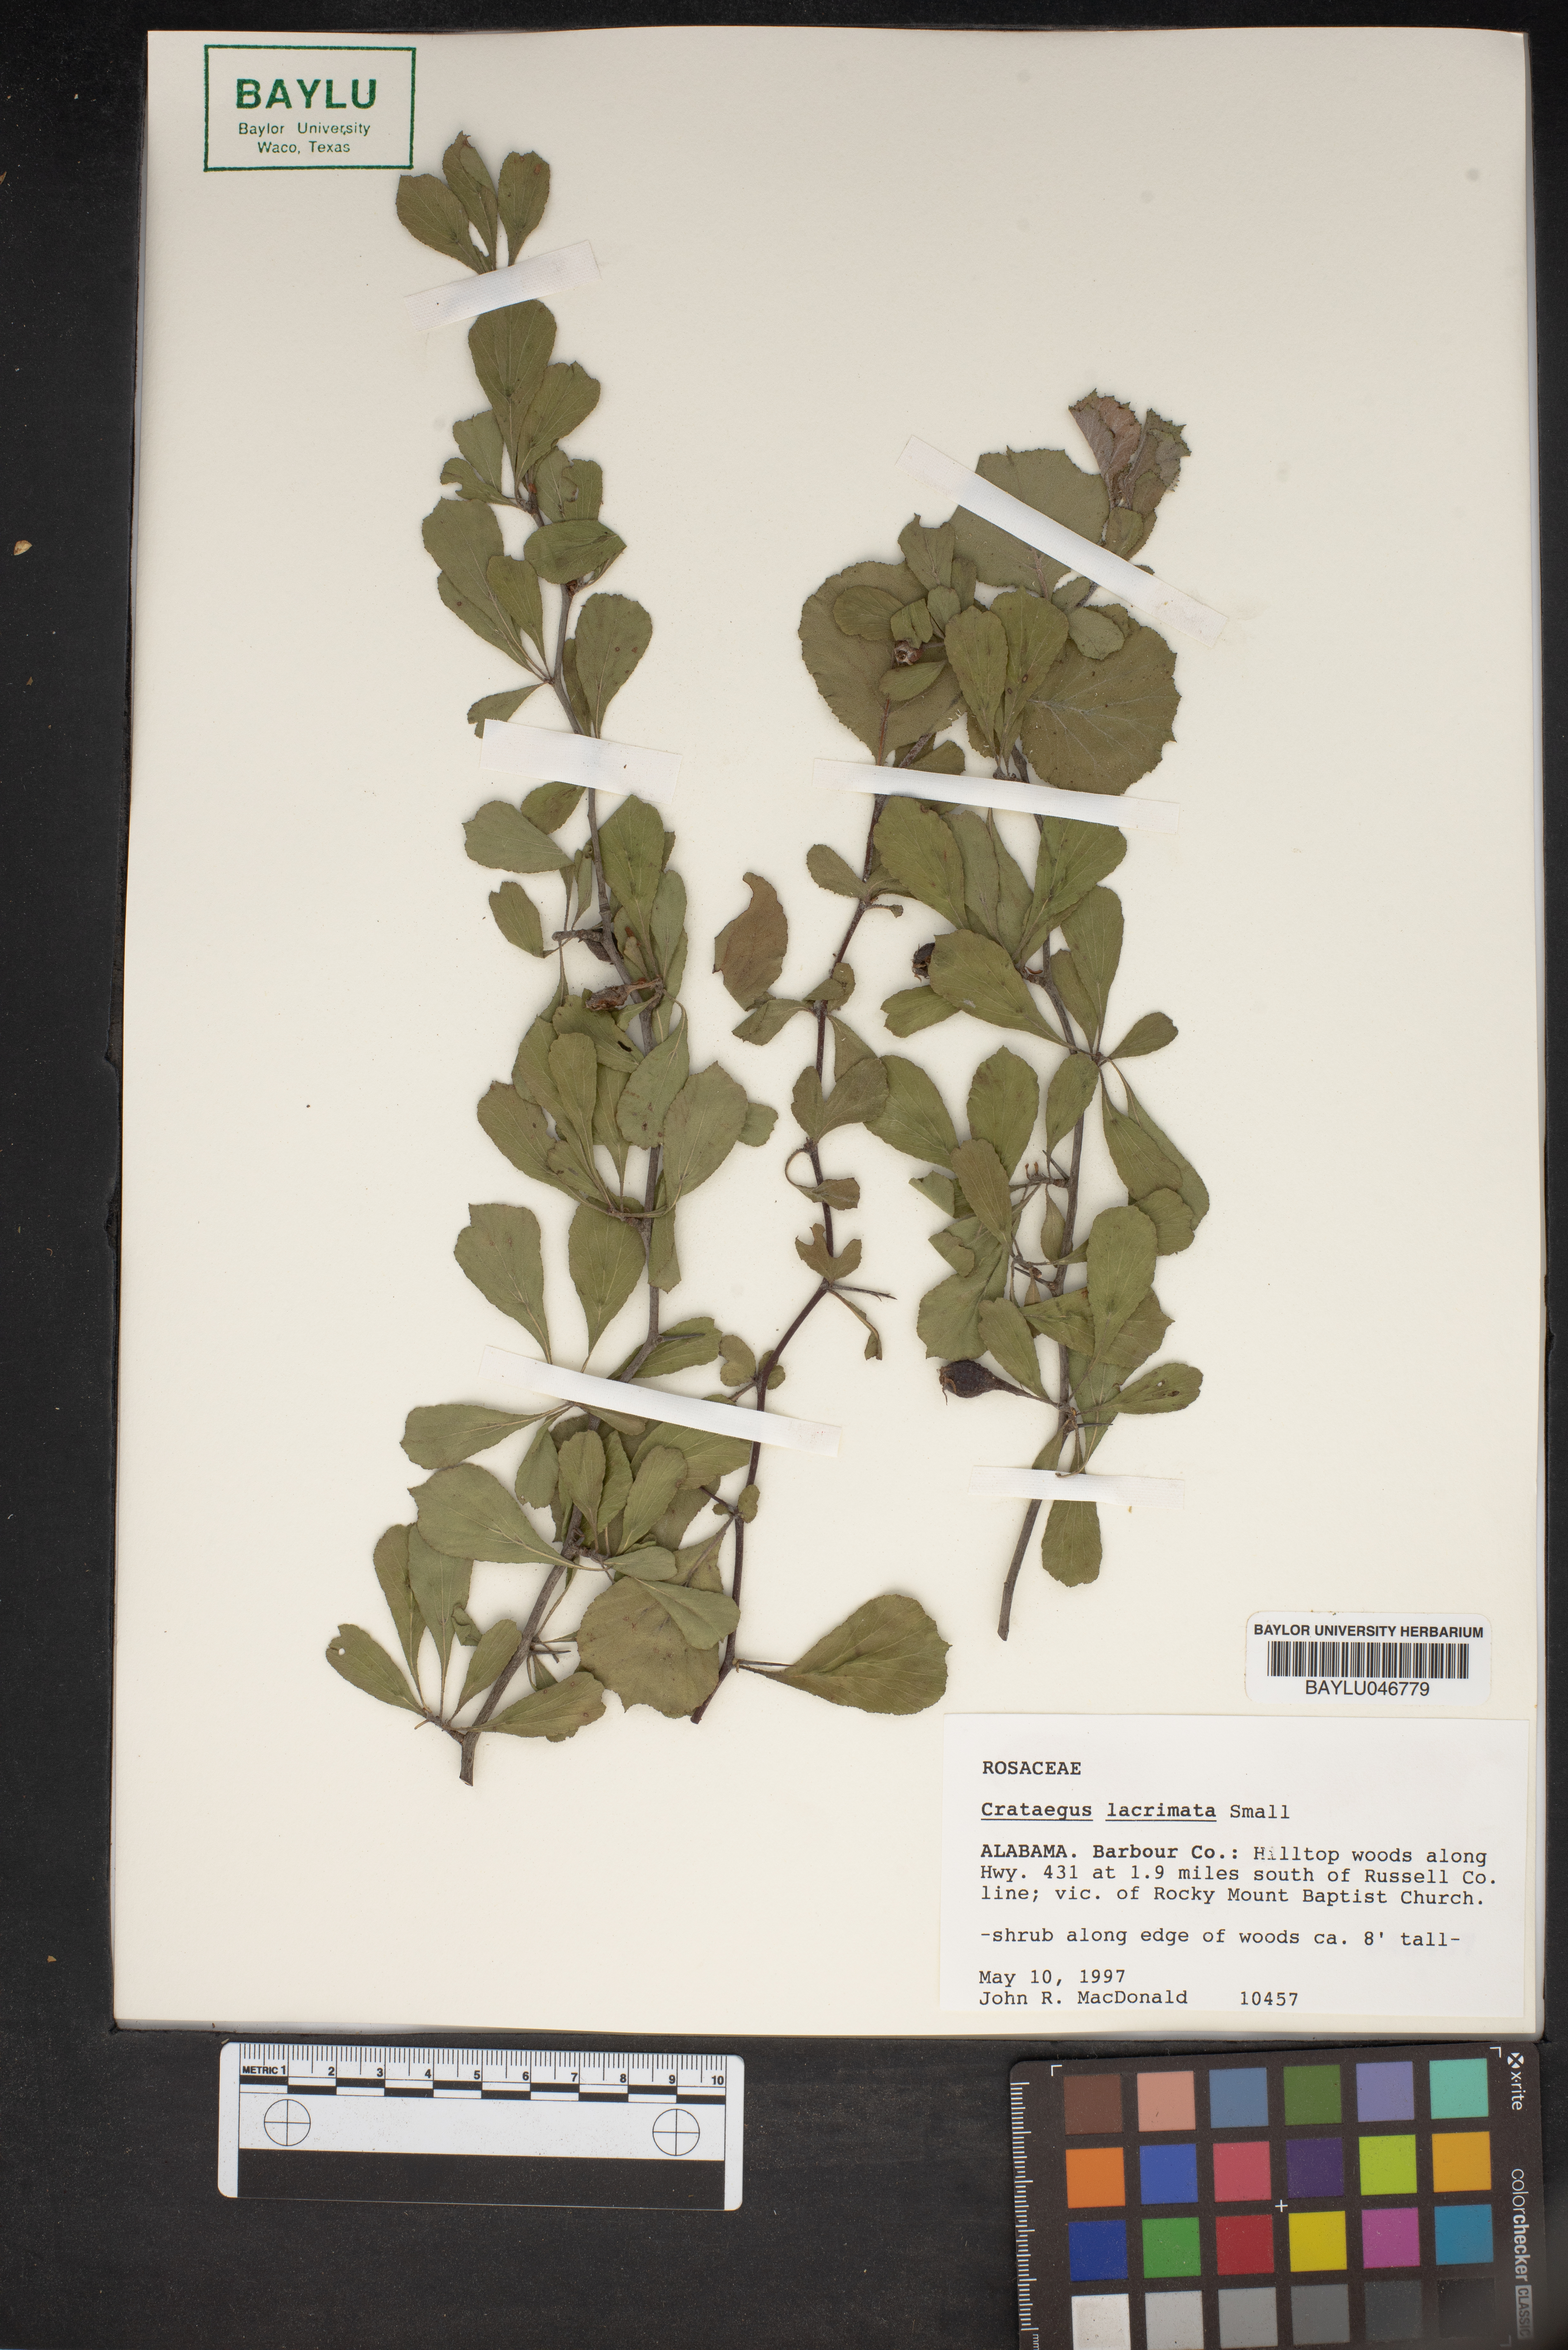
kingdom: Plantae
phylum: Tracheophyta
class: Magnoliopsida
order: Rosales
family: Rosaceae
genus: Crataegus
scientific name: Crataegus lacrimata
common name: Weeping hawthorn
